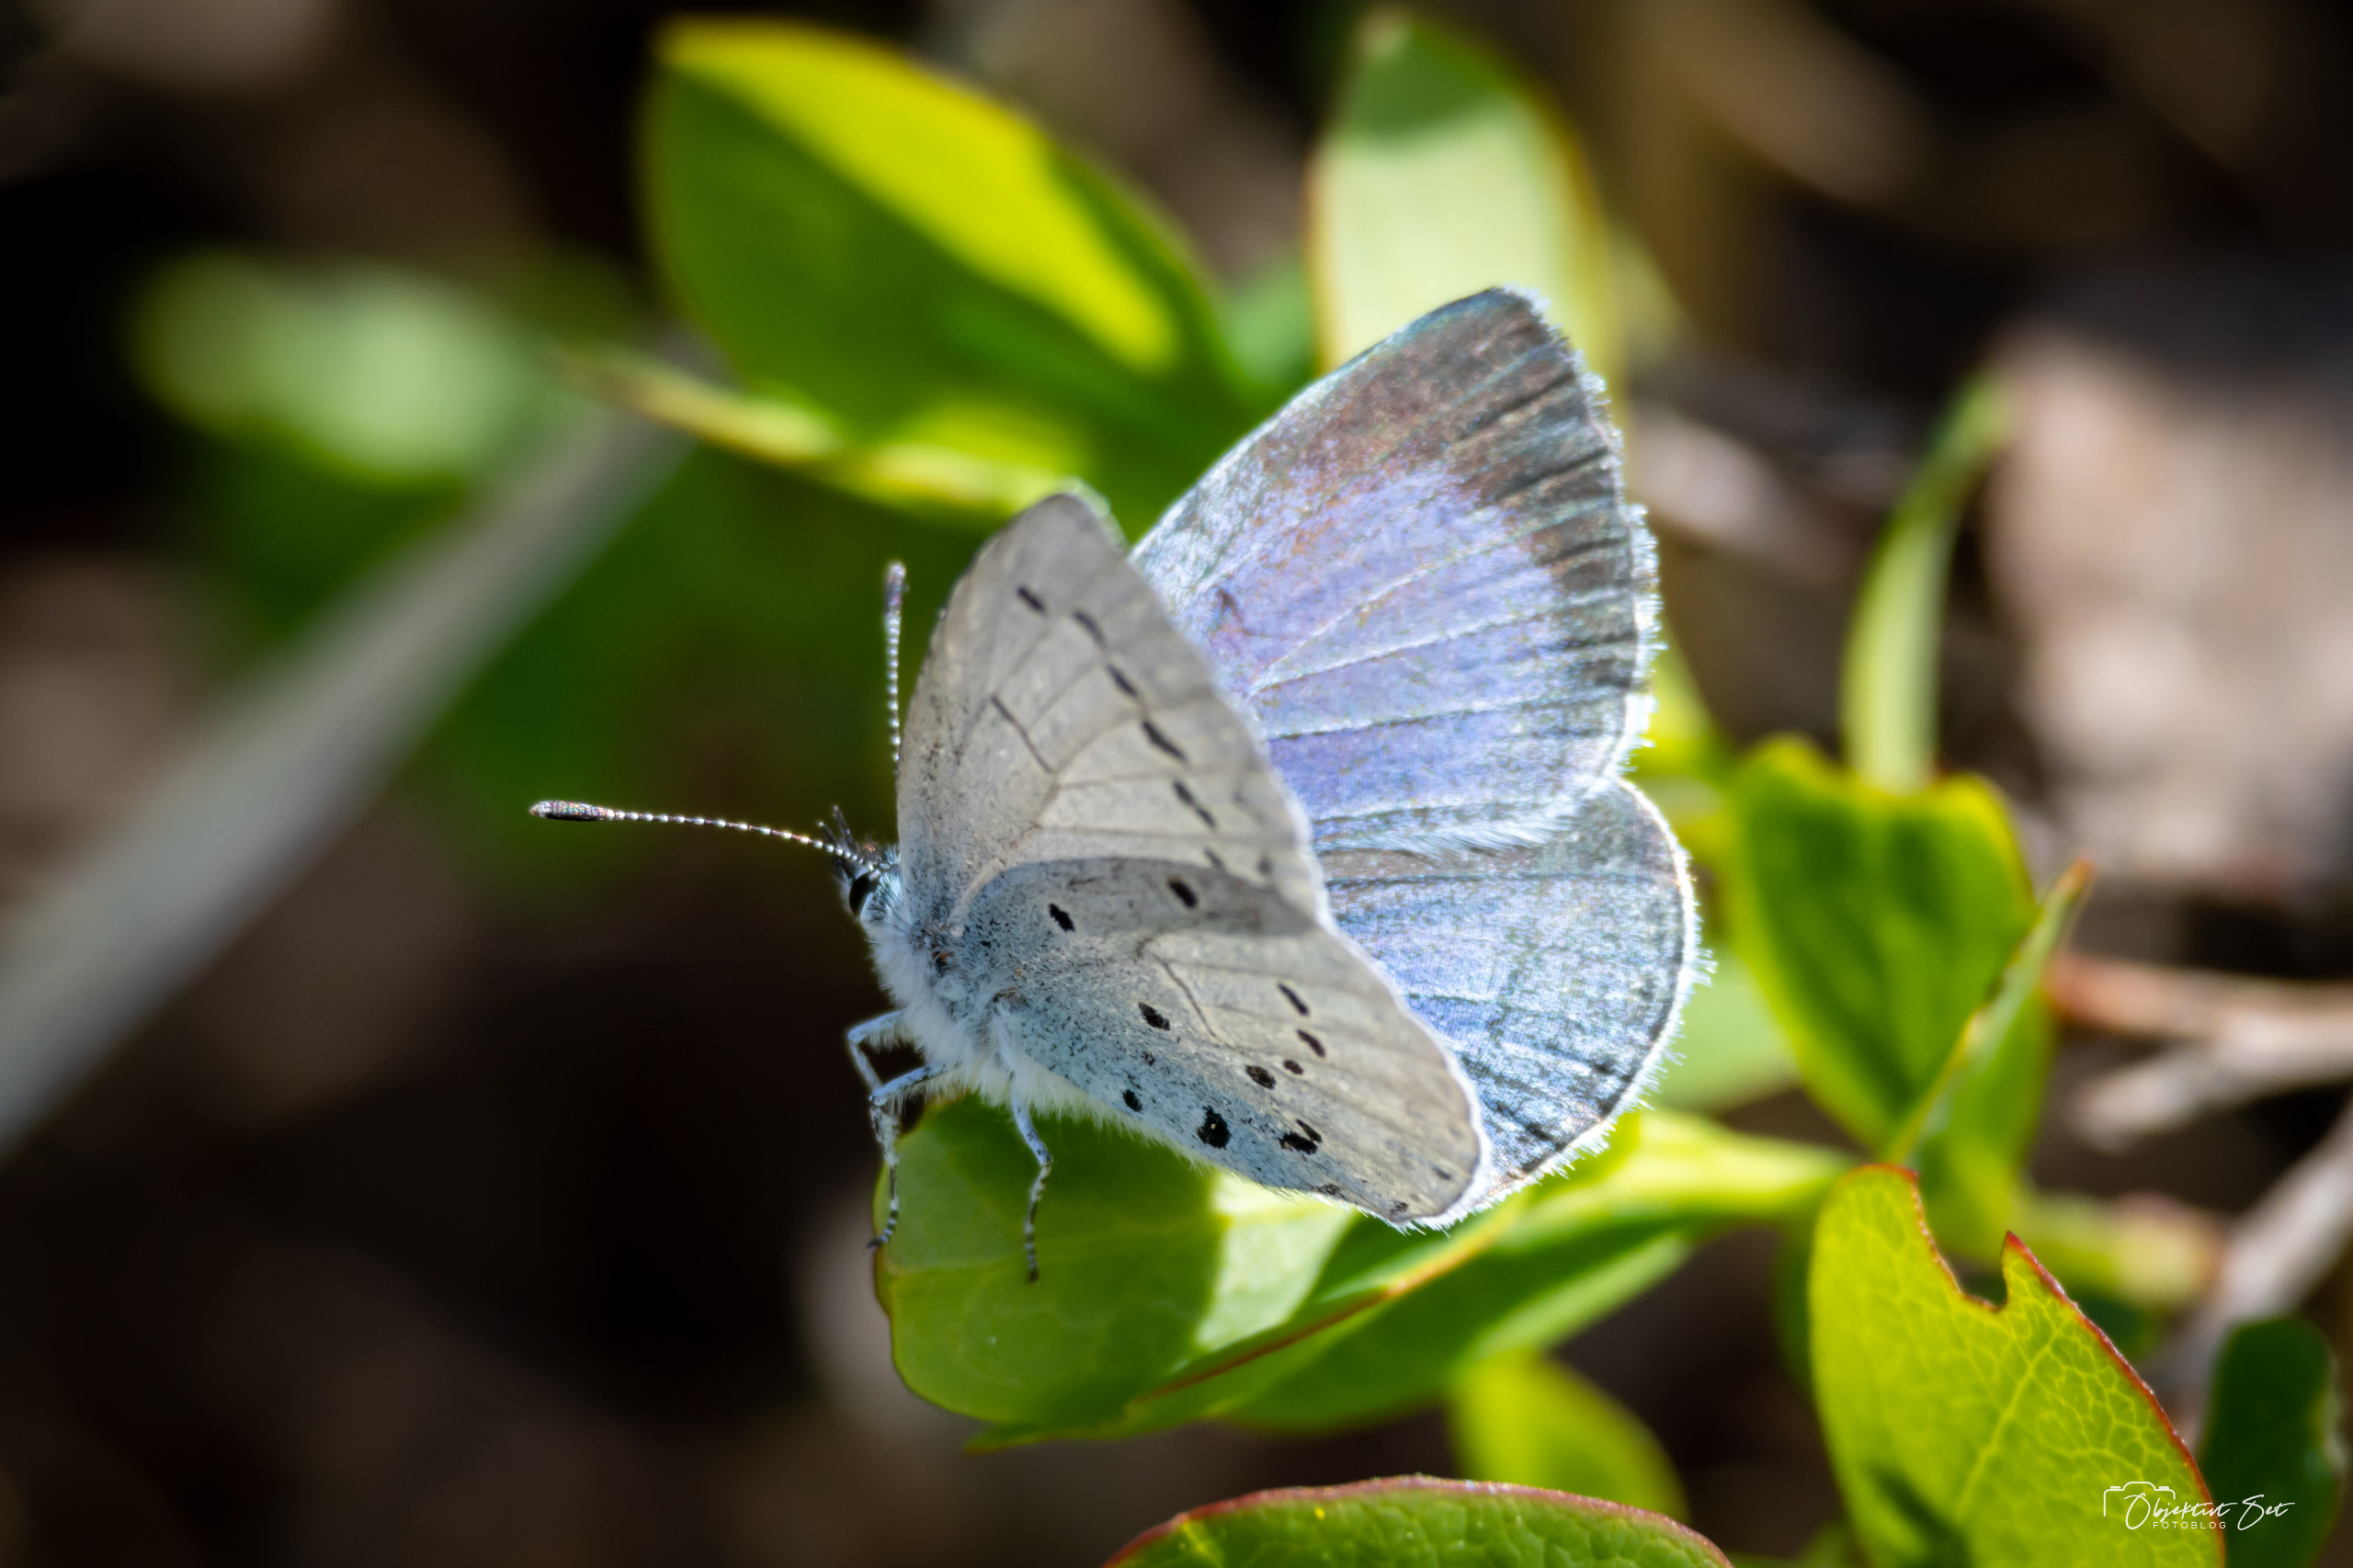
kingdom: Animalia
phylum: Arthropoda
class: Insecta
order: Lepidoptera
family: Lycaenidae
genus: Celastrina
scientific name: Celastrina argiolus
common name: Skovblåfugl
